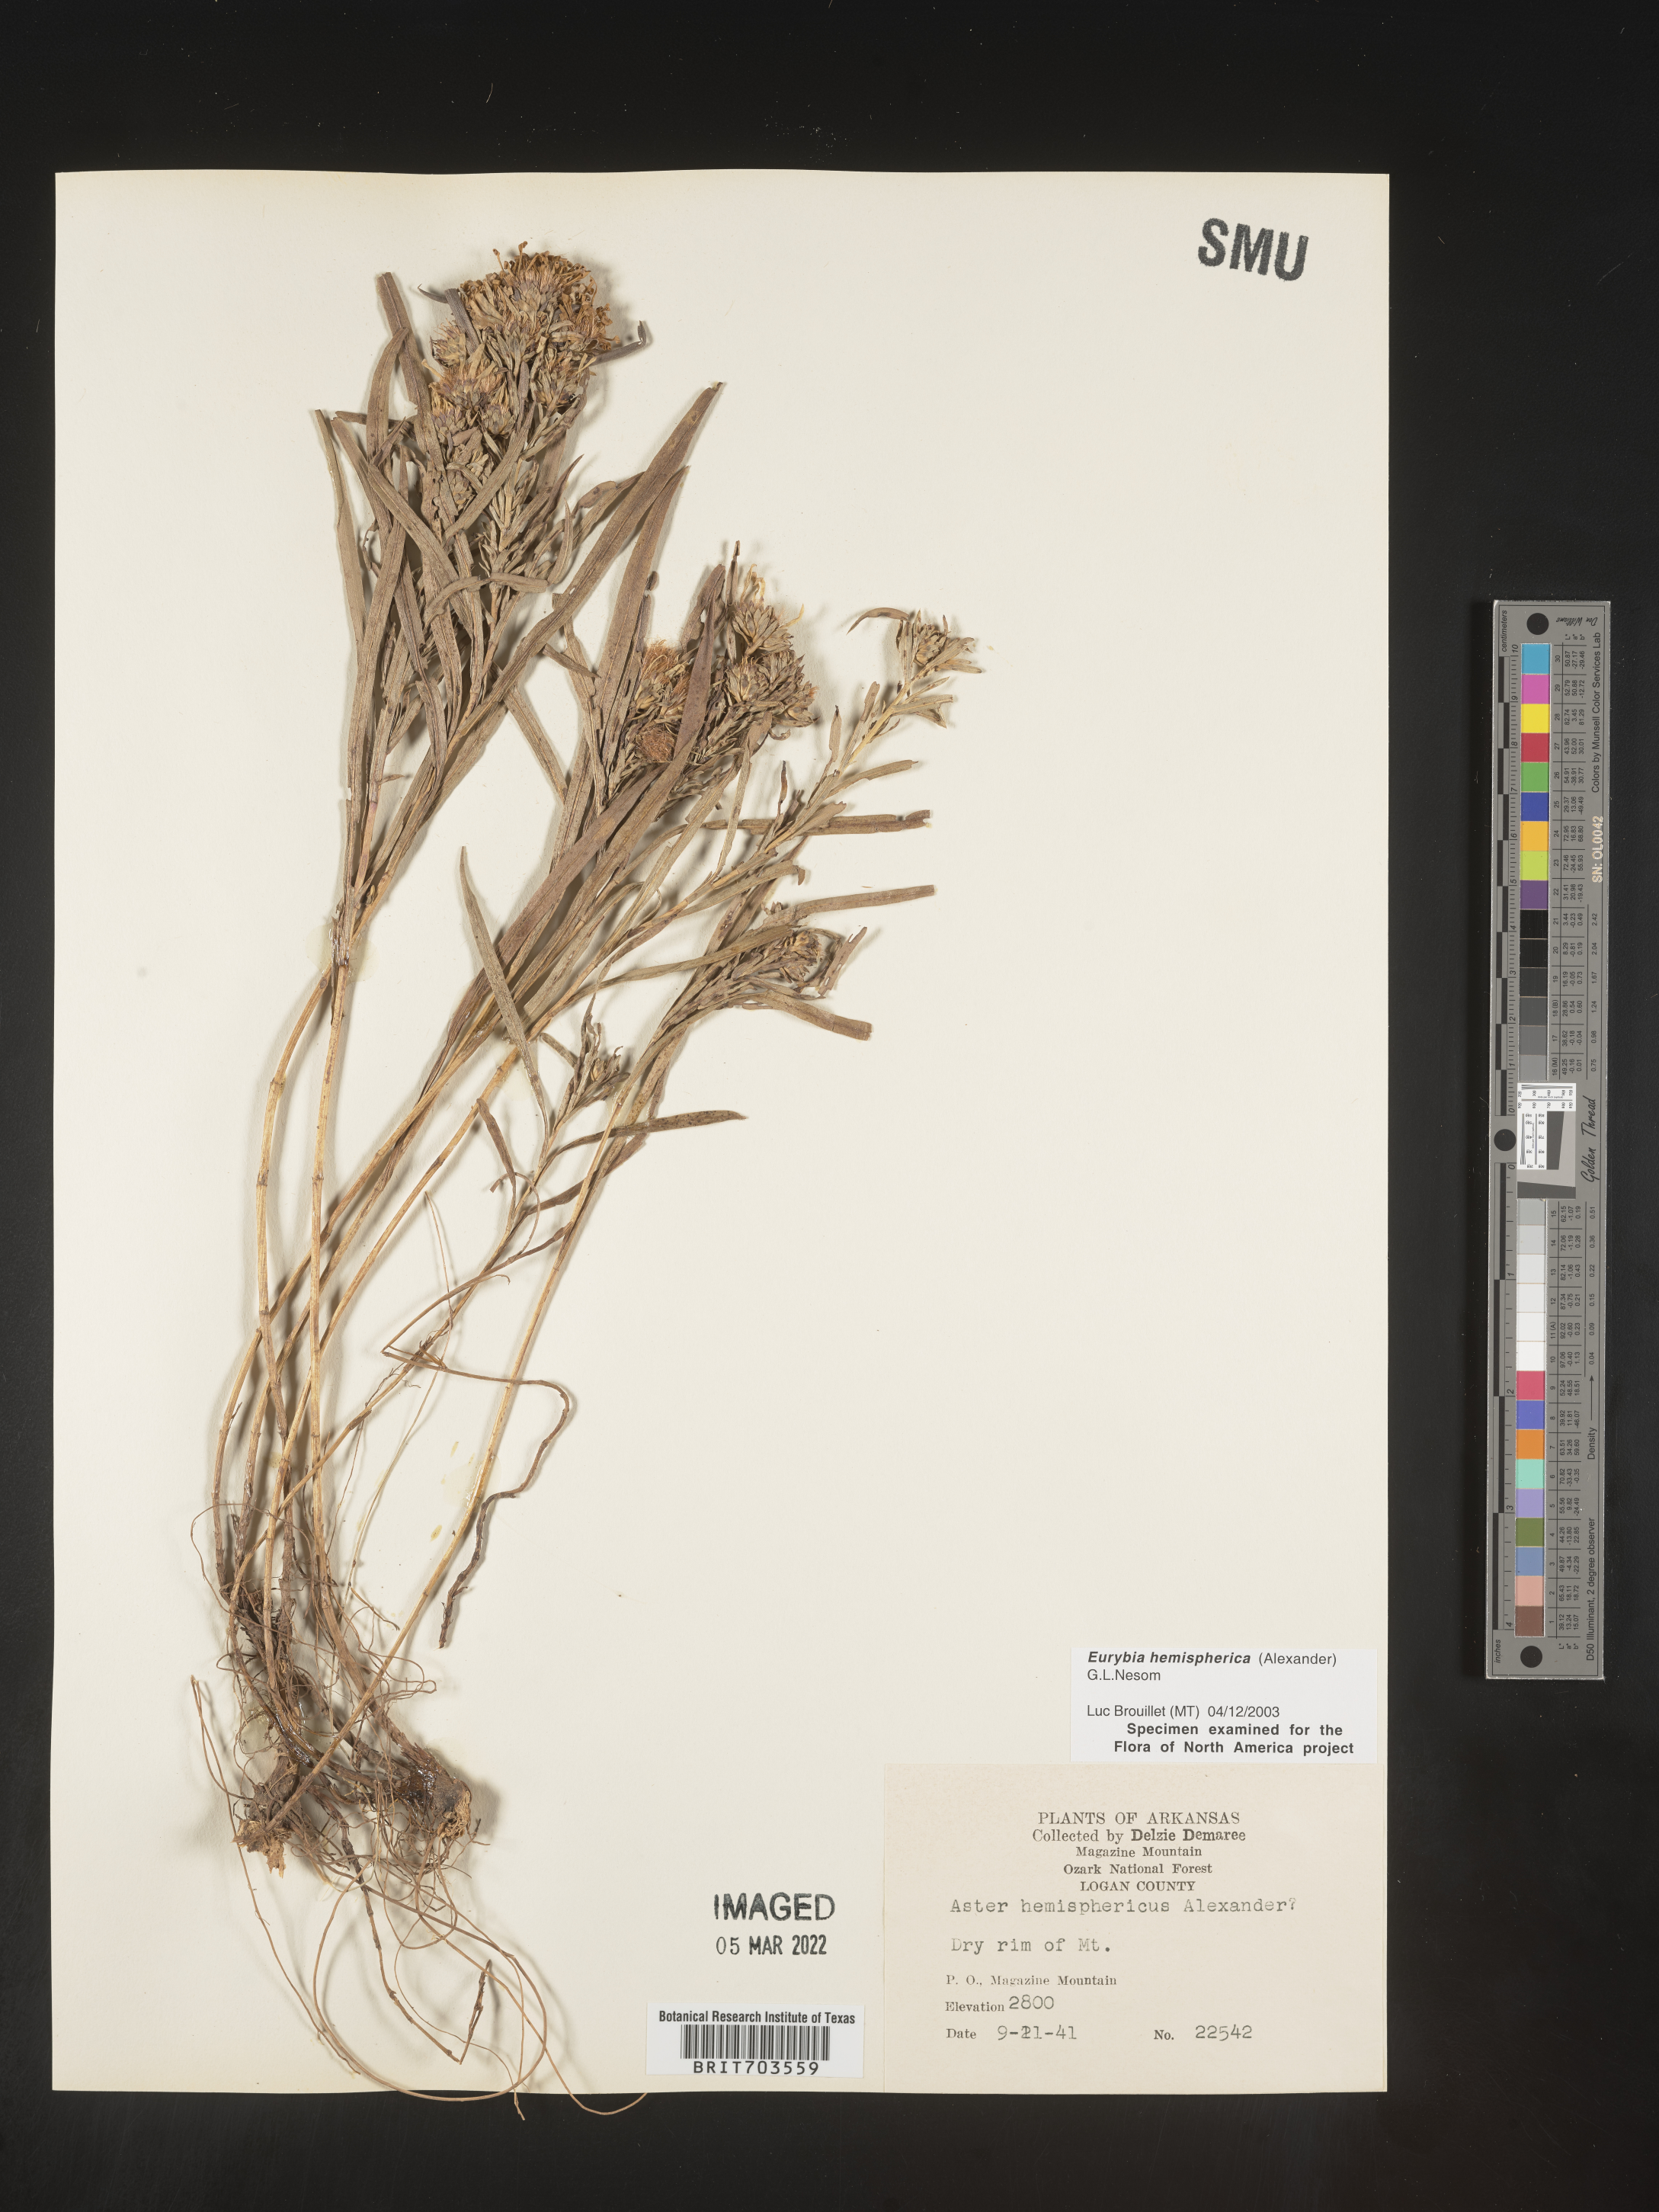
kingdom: Plantae
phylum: Tracheophyta
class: Magnoliopsida
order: Asterales
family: Asteraceae
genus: Eurybia
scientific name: Eurybia hemispherica
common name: Showy aster
